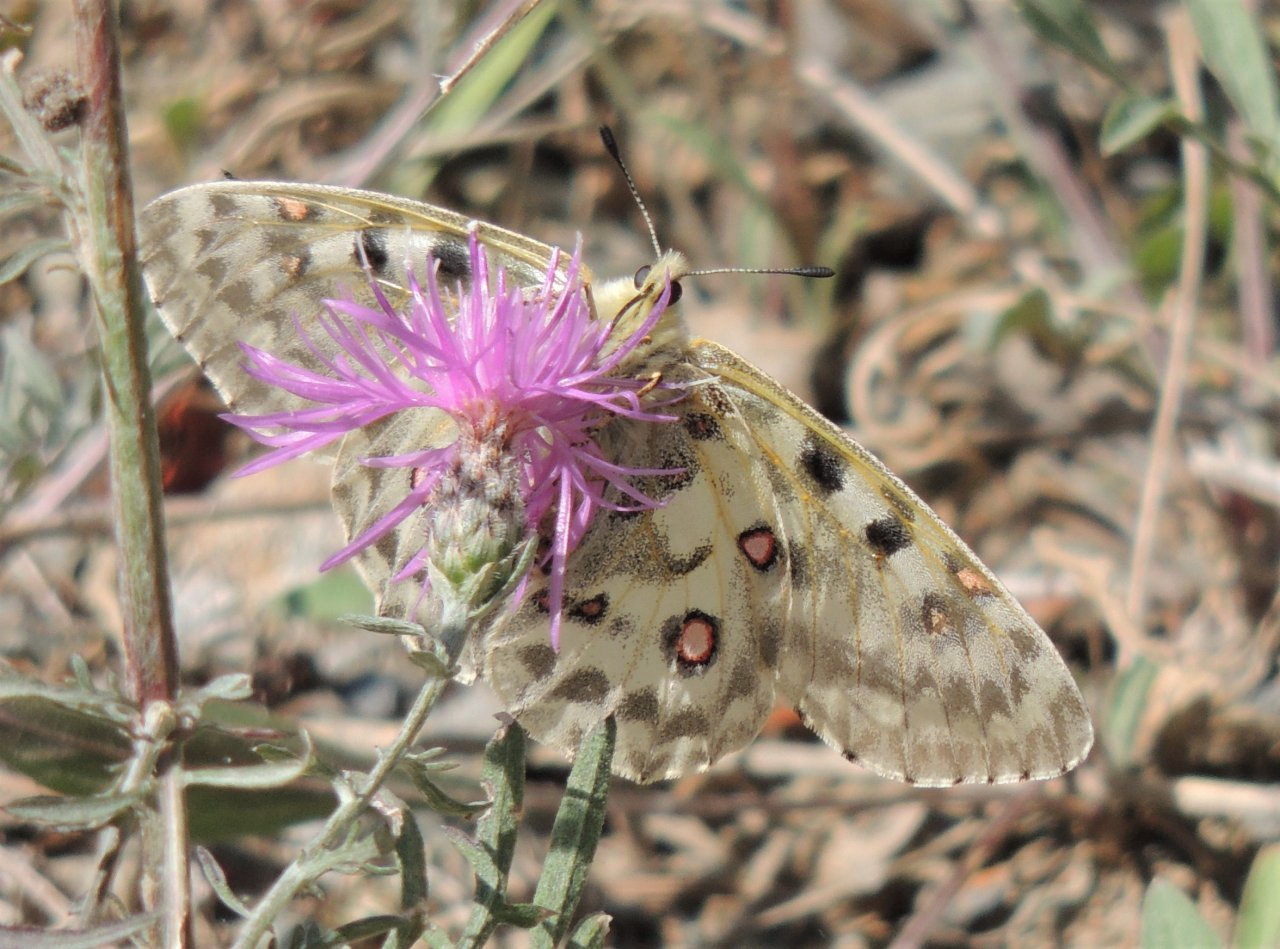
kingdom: Animalia
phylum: Arthropoda
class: Insecta
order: Lepidoptera
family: Papilionidae
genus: Parnassius
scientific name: Parnassius smintheus
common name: Rocky Mountain Parnassian
